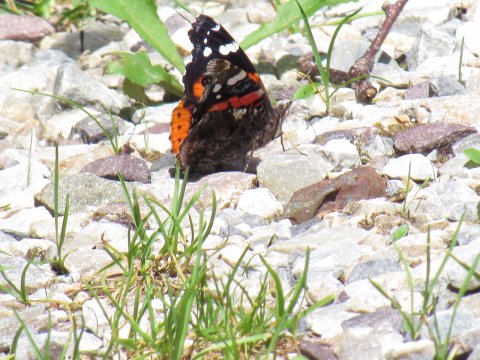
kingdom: Animalia
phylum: Arthropoda
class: Insecta
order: Lepidoptera
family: Nymphalidae
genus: Vanessa
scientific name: Vanessa atalanta
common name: Red Admiral
